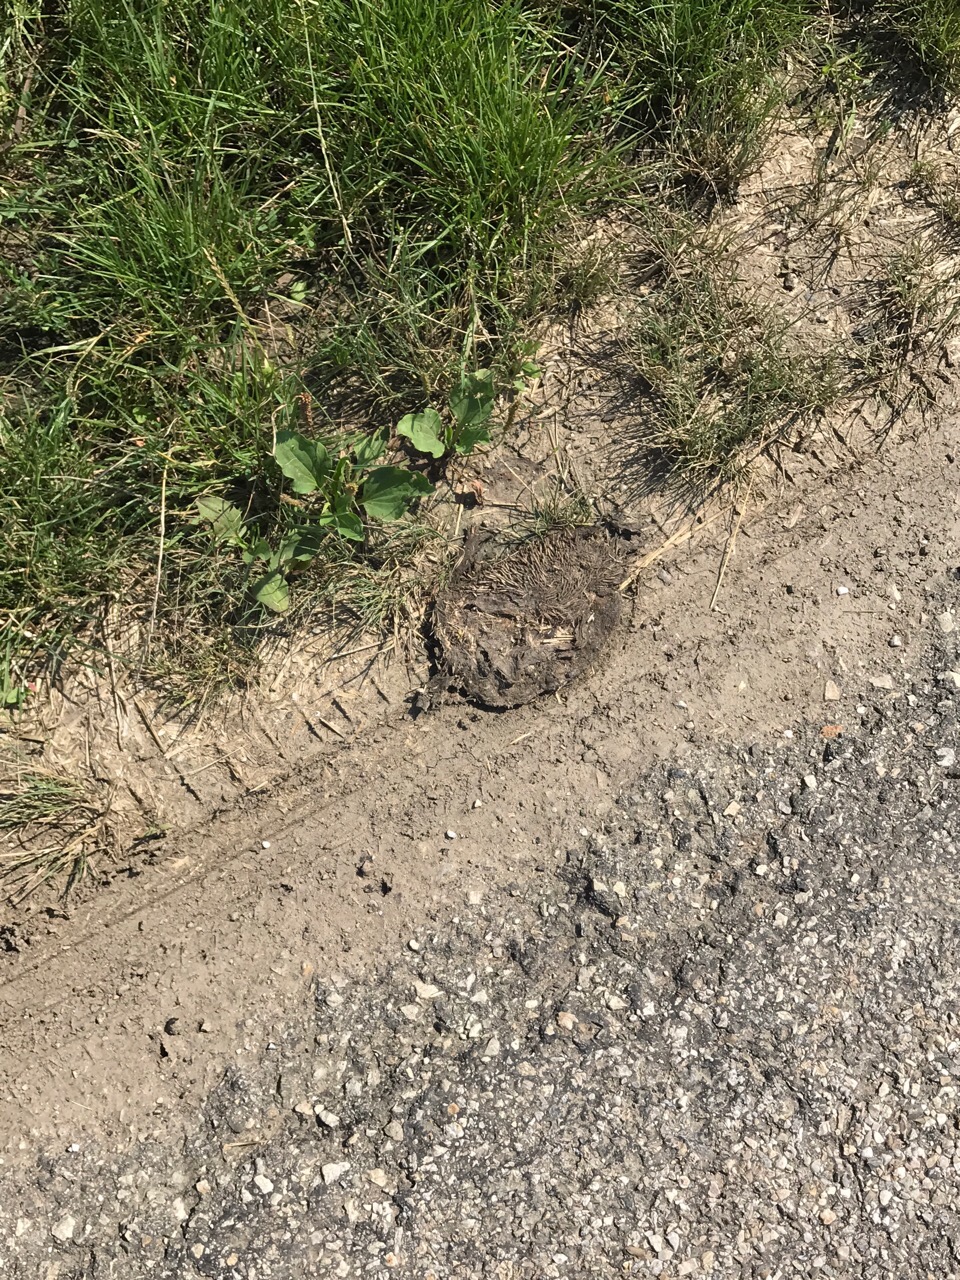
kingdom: Animalia
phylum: Chordata
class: Mammalia
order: Erinaceomorpha
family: Erinaceidae
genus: Erinaceus
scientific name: Erinaceus
